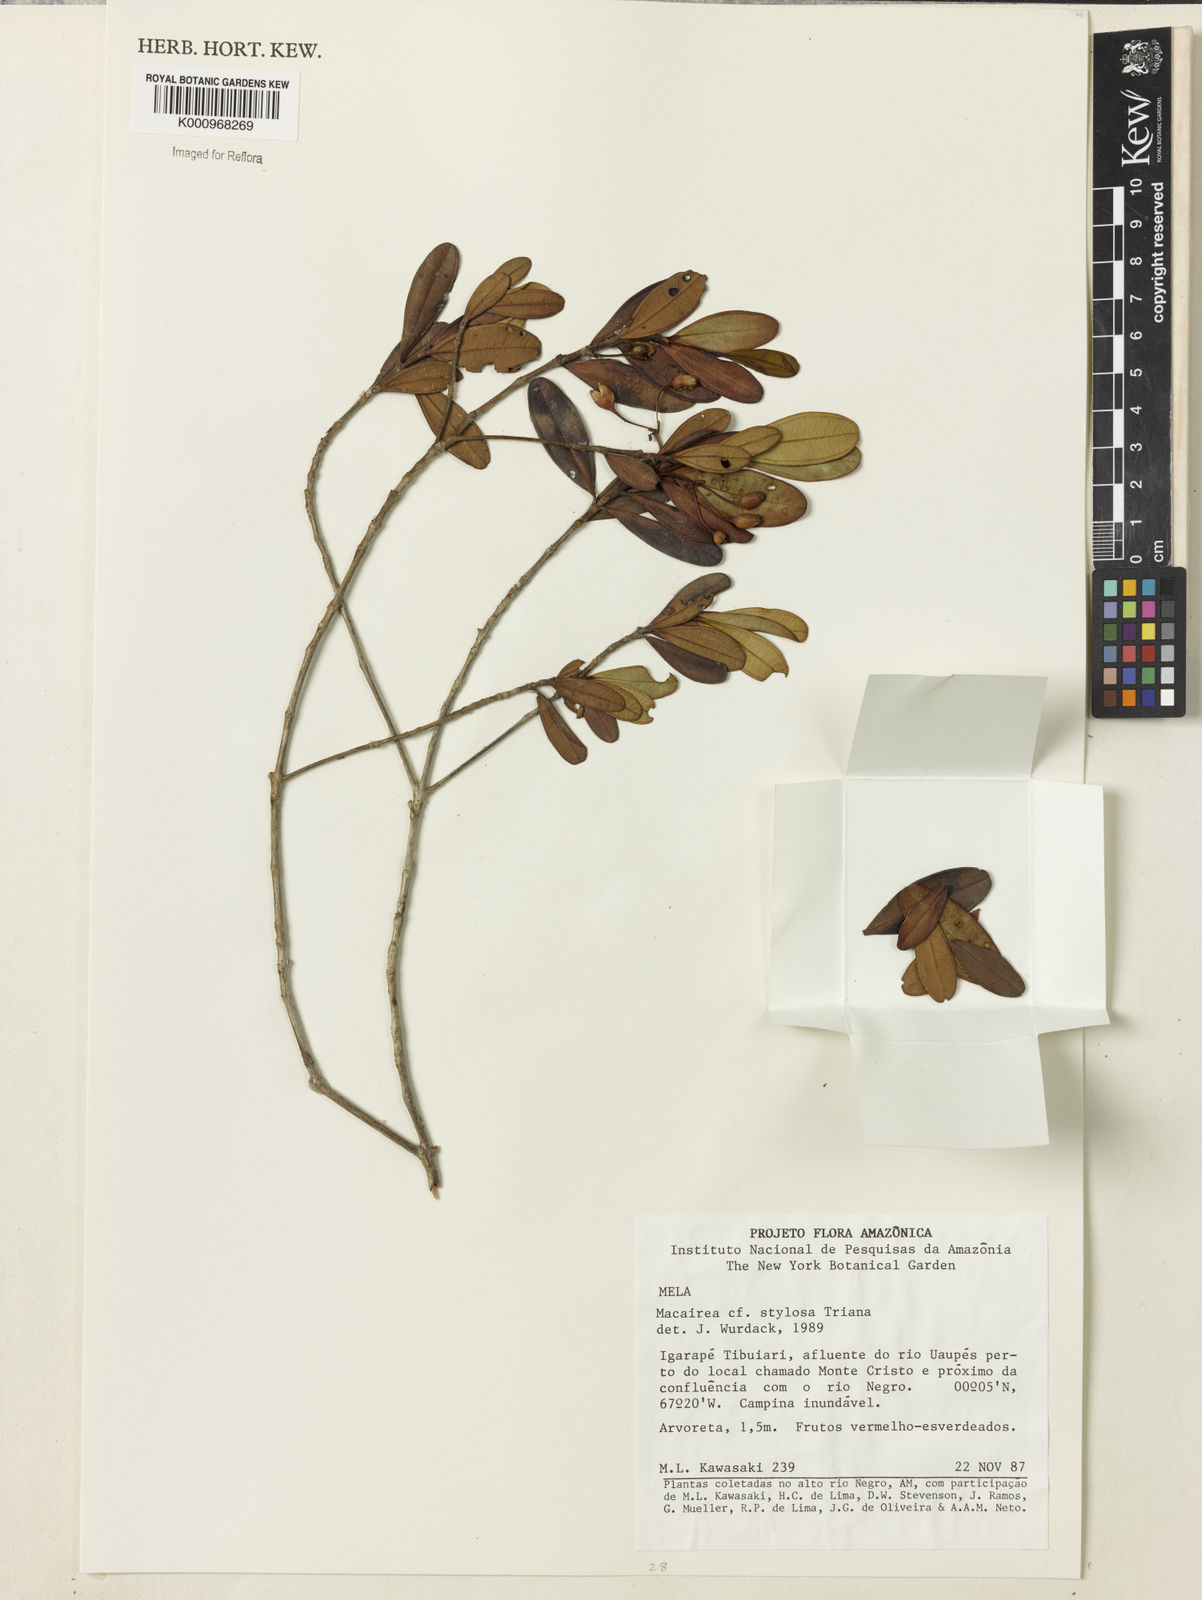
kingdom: Plantae
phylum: Tracheophyta
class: Magnoliopsida
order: Myrtales
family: Melastomataceae
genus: Macairea
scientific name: Macairea stylosa
